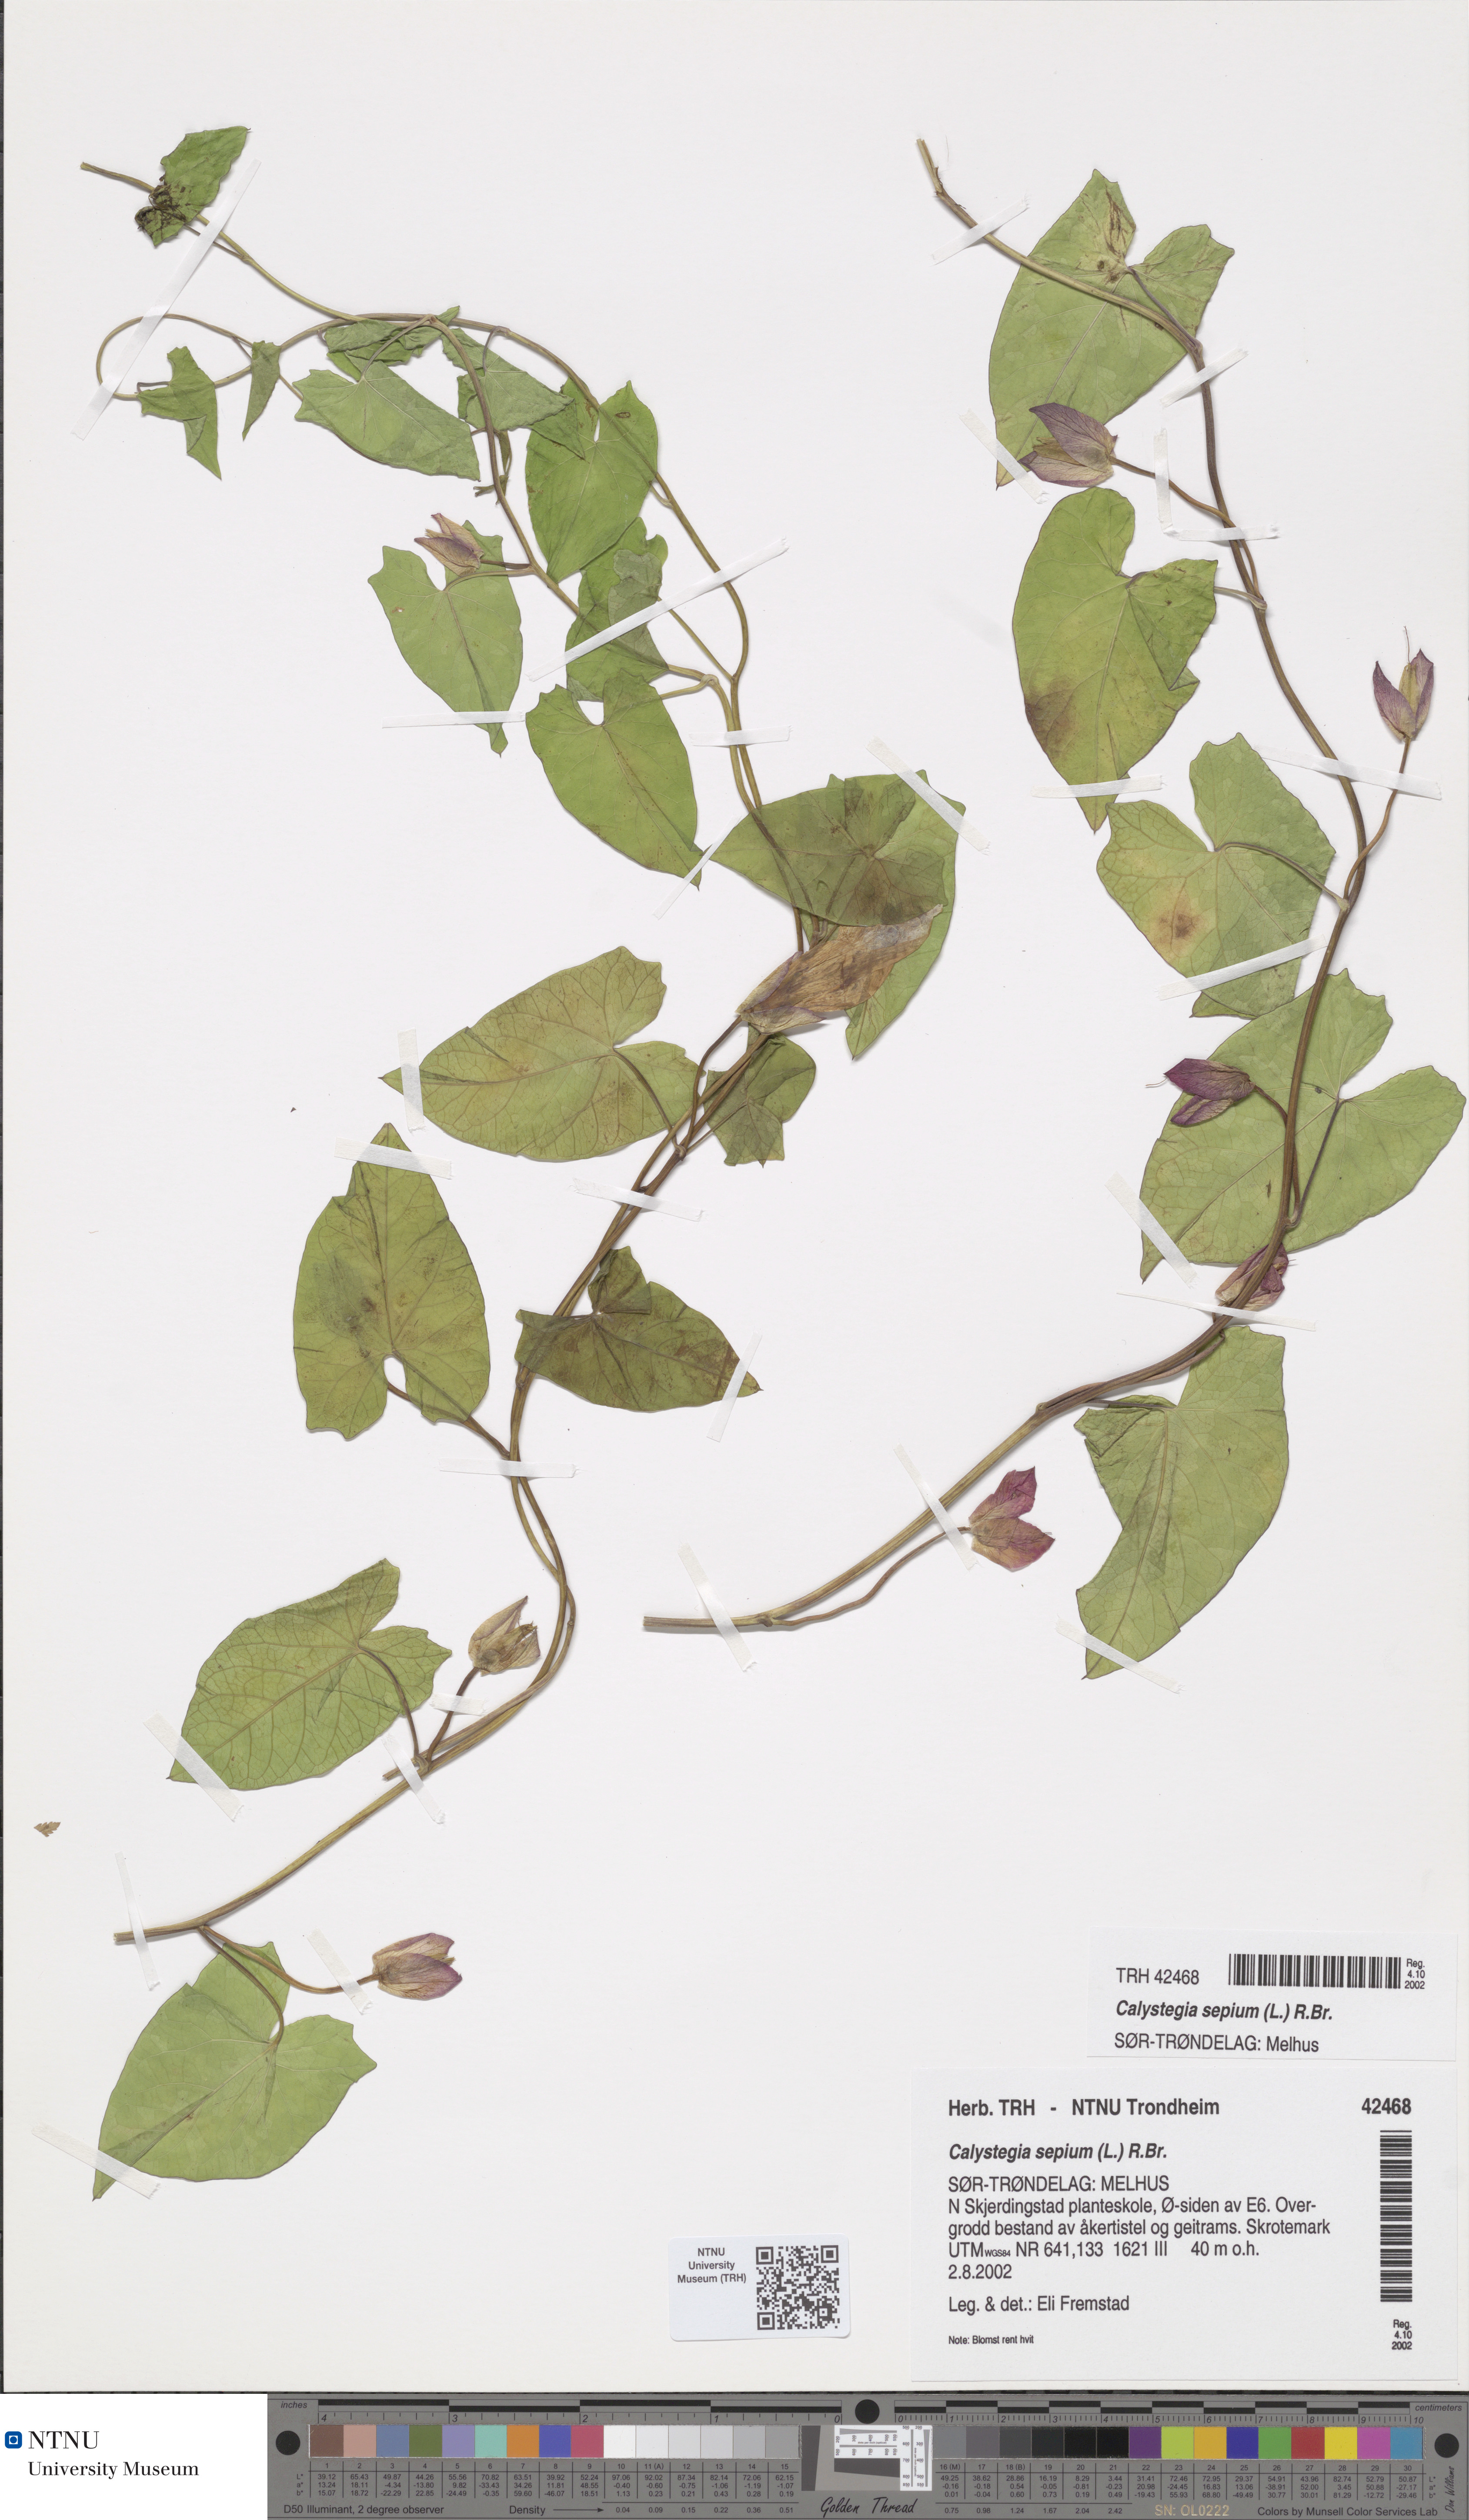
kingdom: Plantae
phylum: Tracheophyta
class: Magnoliopsida
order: Solanales
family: Convolvulaceae
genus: Calystegia
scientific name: Calystegia sepium
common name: Hedge bindweed
